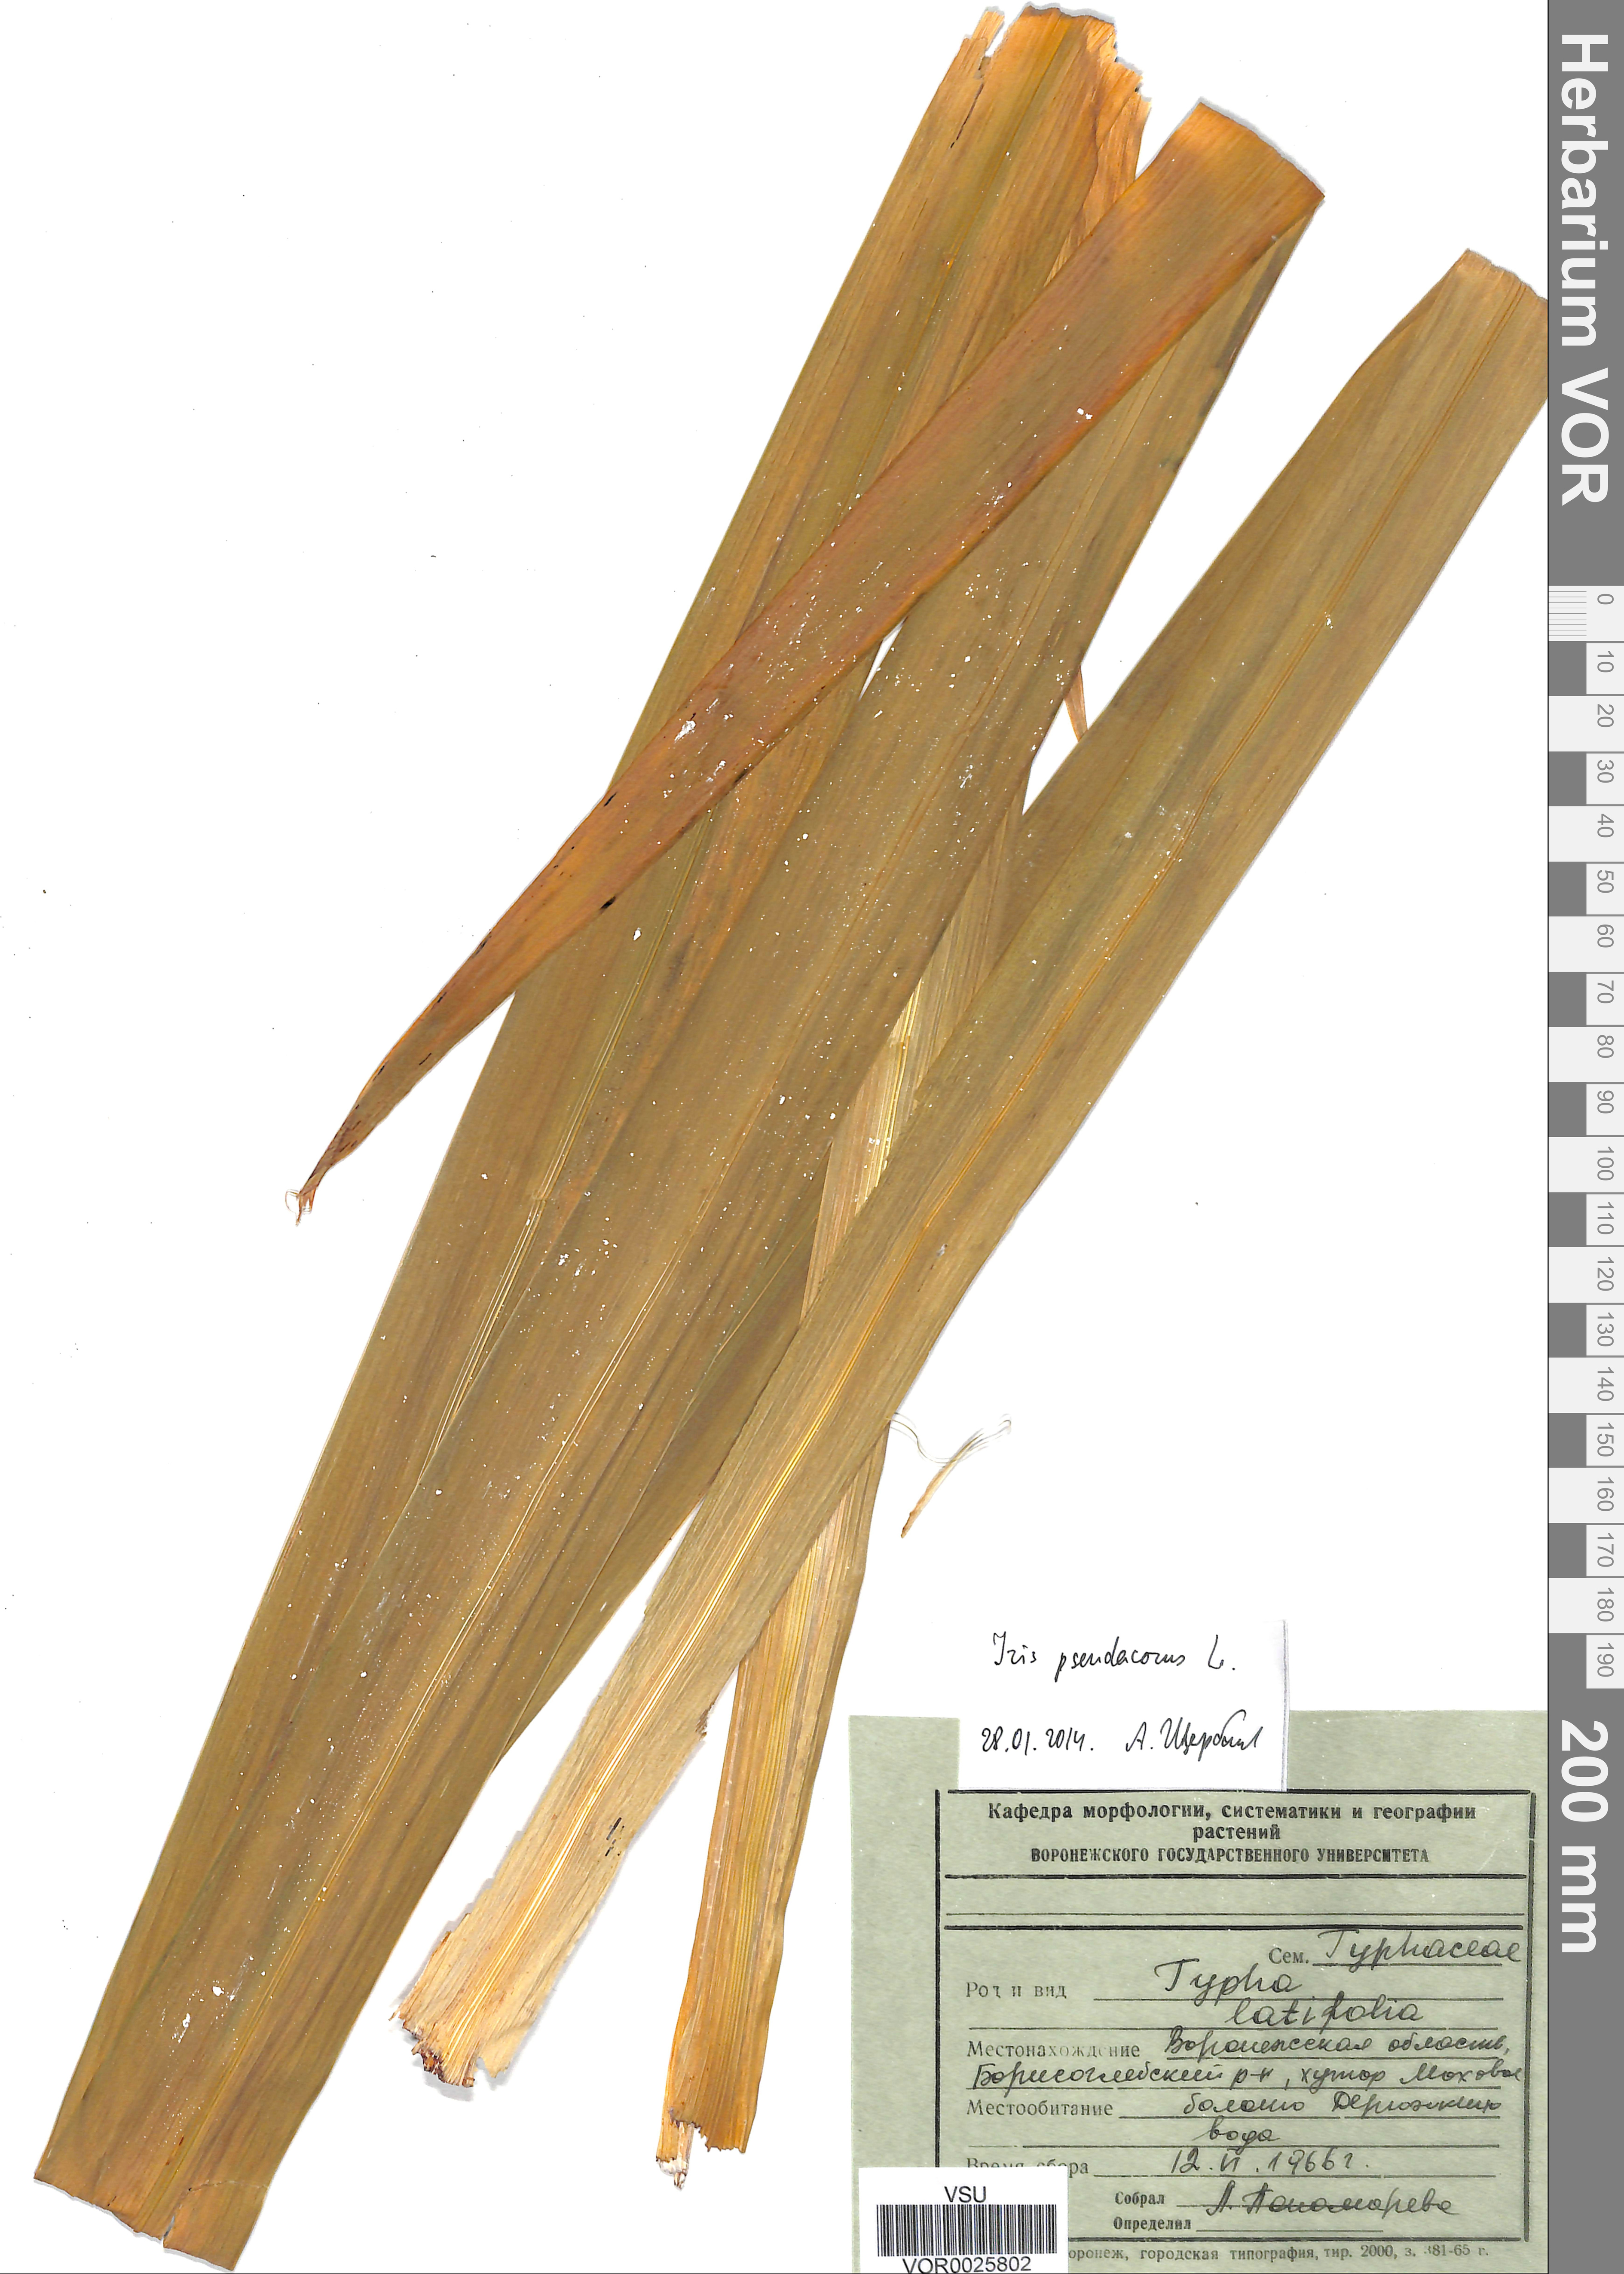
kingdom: Plantae
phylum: Tracheophyta
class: Liliopsida
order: Asparagales
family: Iridaceae
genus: Iris
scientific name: Iris pseudacorus
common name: Yellow flag
